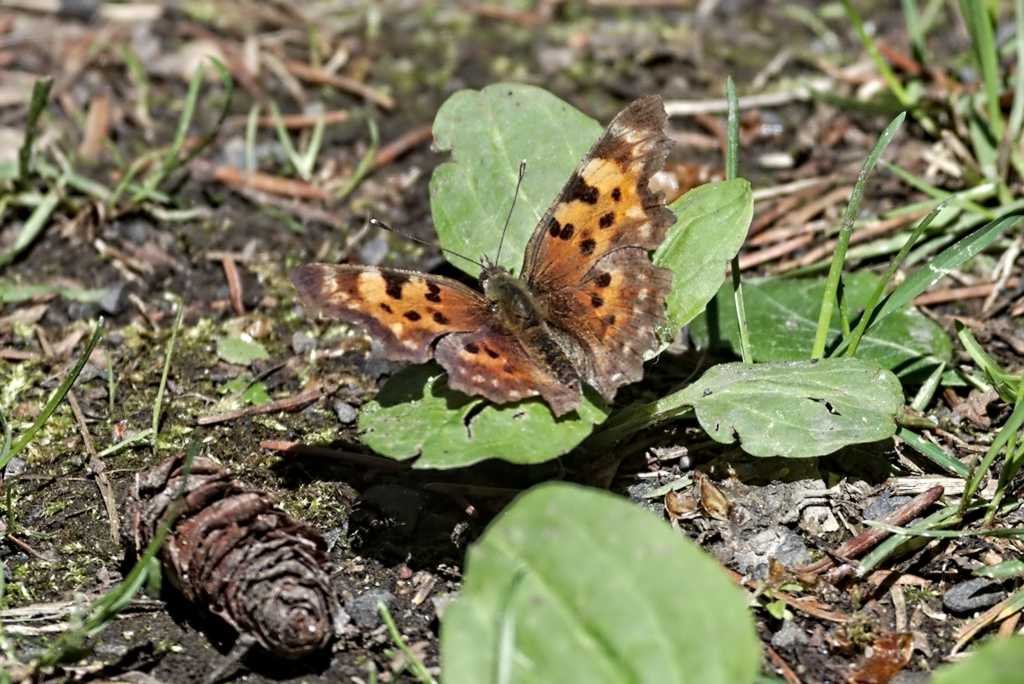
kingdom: Animalia
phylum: Arthropoda
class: Insecta
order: Lepidoptera
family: Nymphalidae
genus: Polygonia
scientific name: Polygonia satyrus
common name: Satyr Comma
